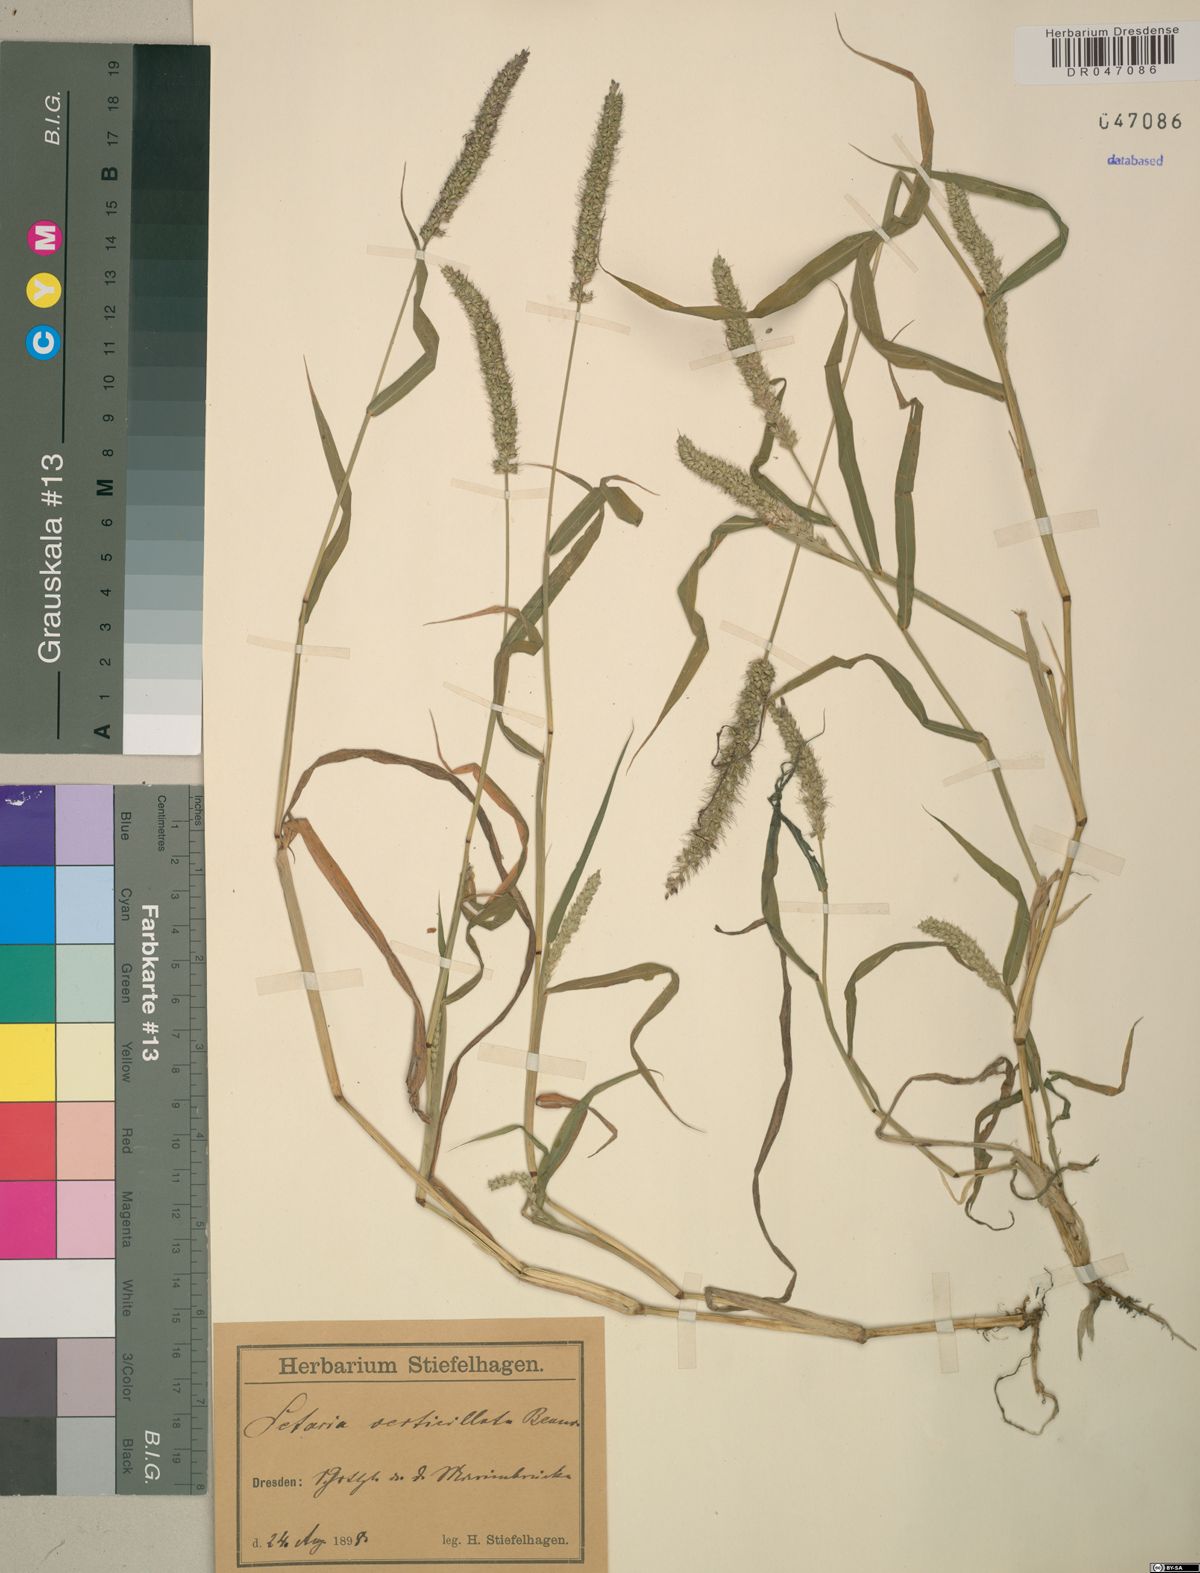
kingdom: Plantae
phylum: Tracheophyta
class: Liliopsida
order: Poales
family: Poaceae
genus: Setaria
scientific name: Setaria verticillata
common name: Hooked bristlegrass
